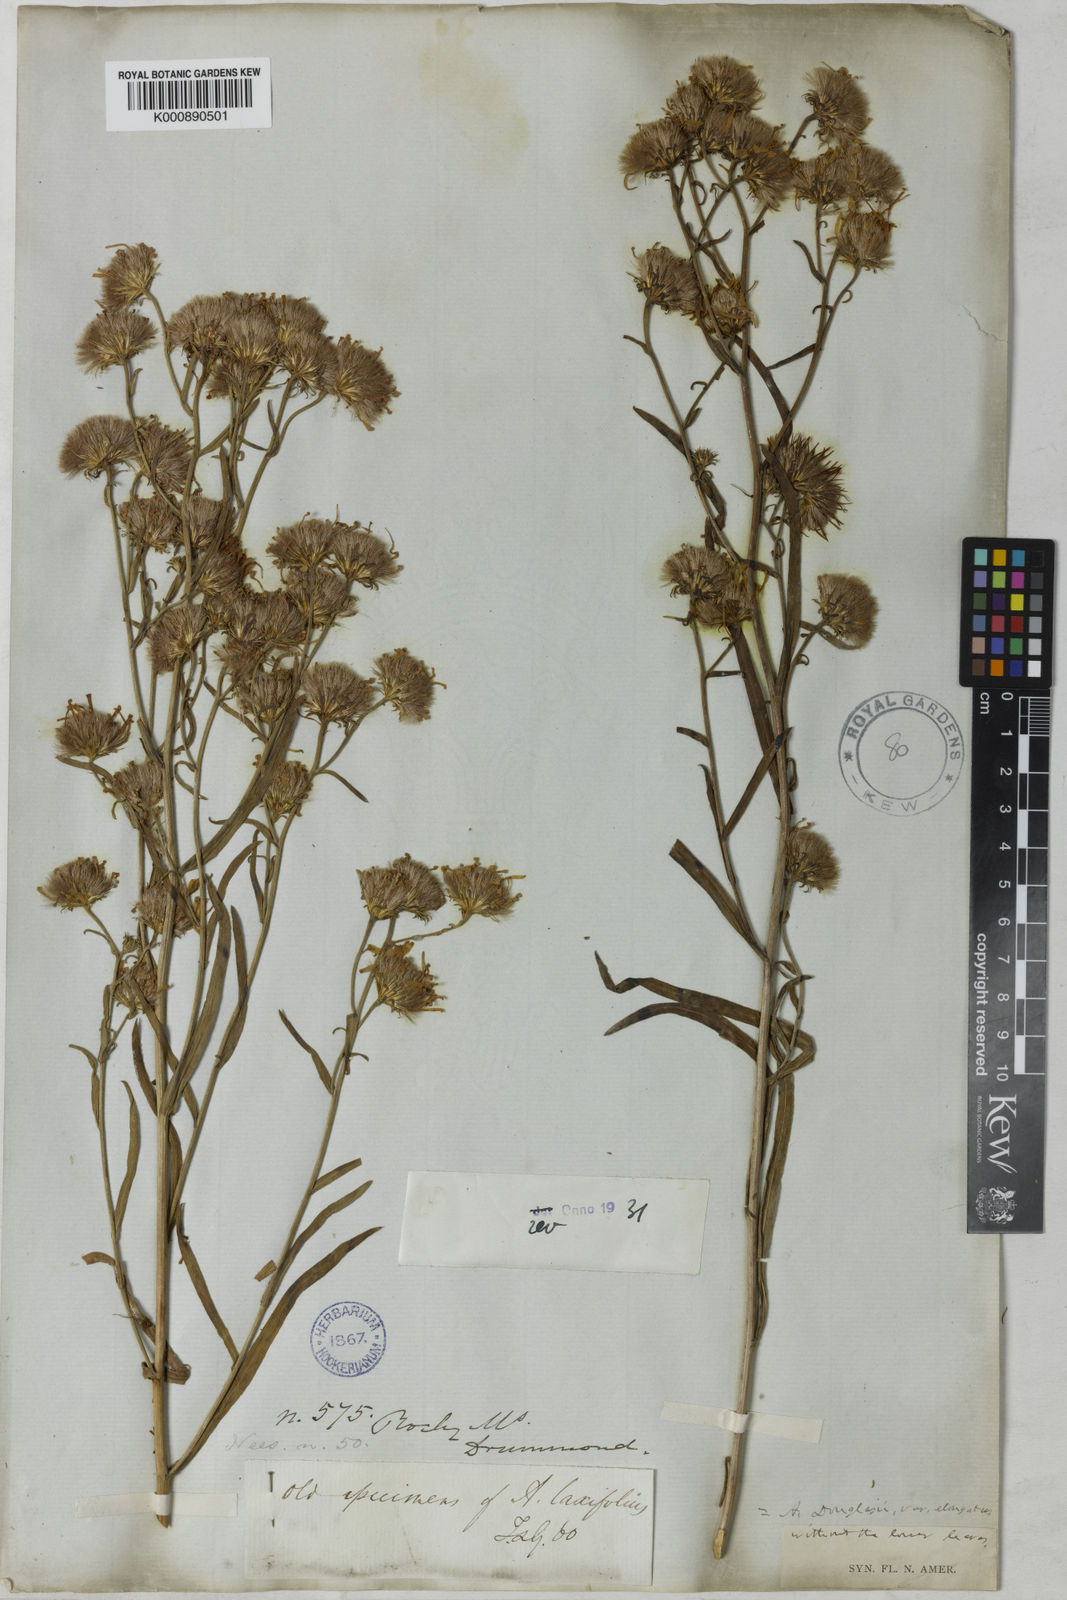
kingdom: Plantae
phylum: Tracheophyta
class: Magnoliopsida
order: Asterales
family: Asteraceae
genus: Aster
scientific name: Aster
